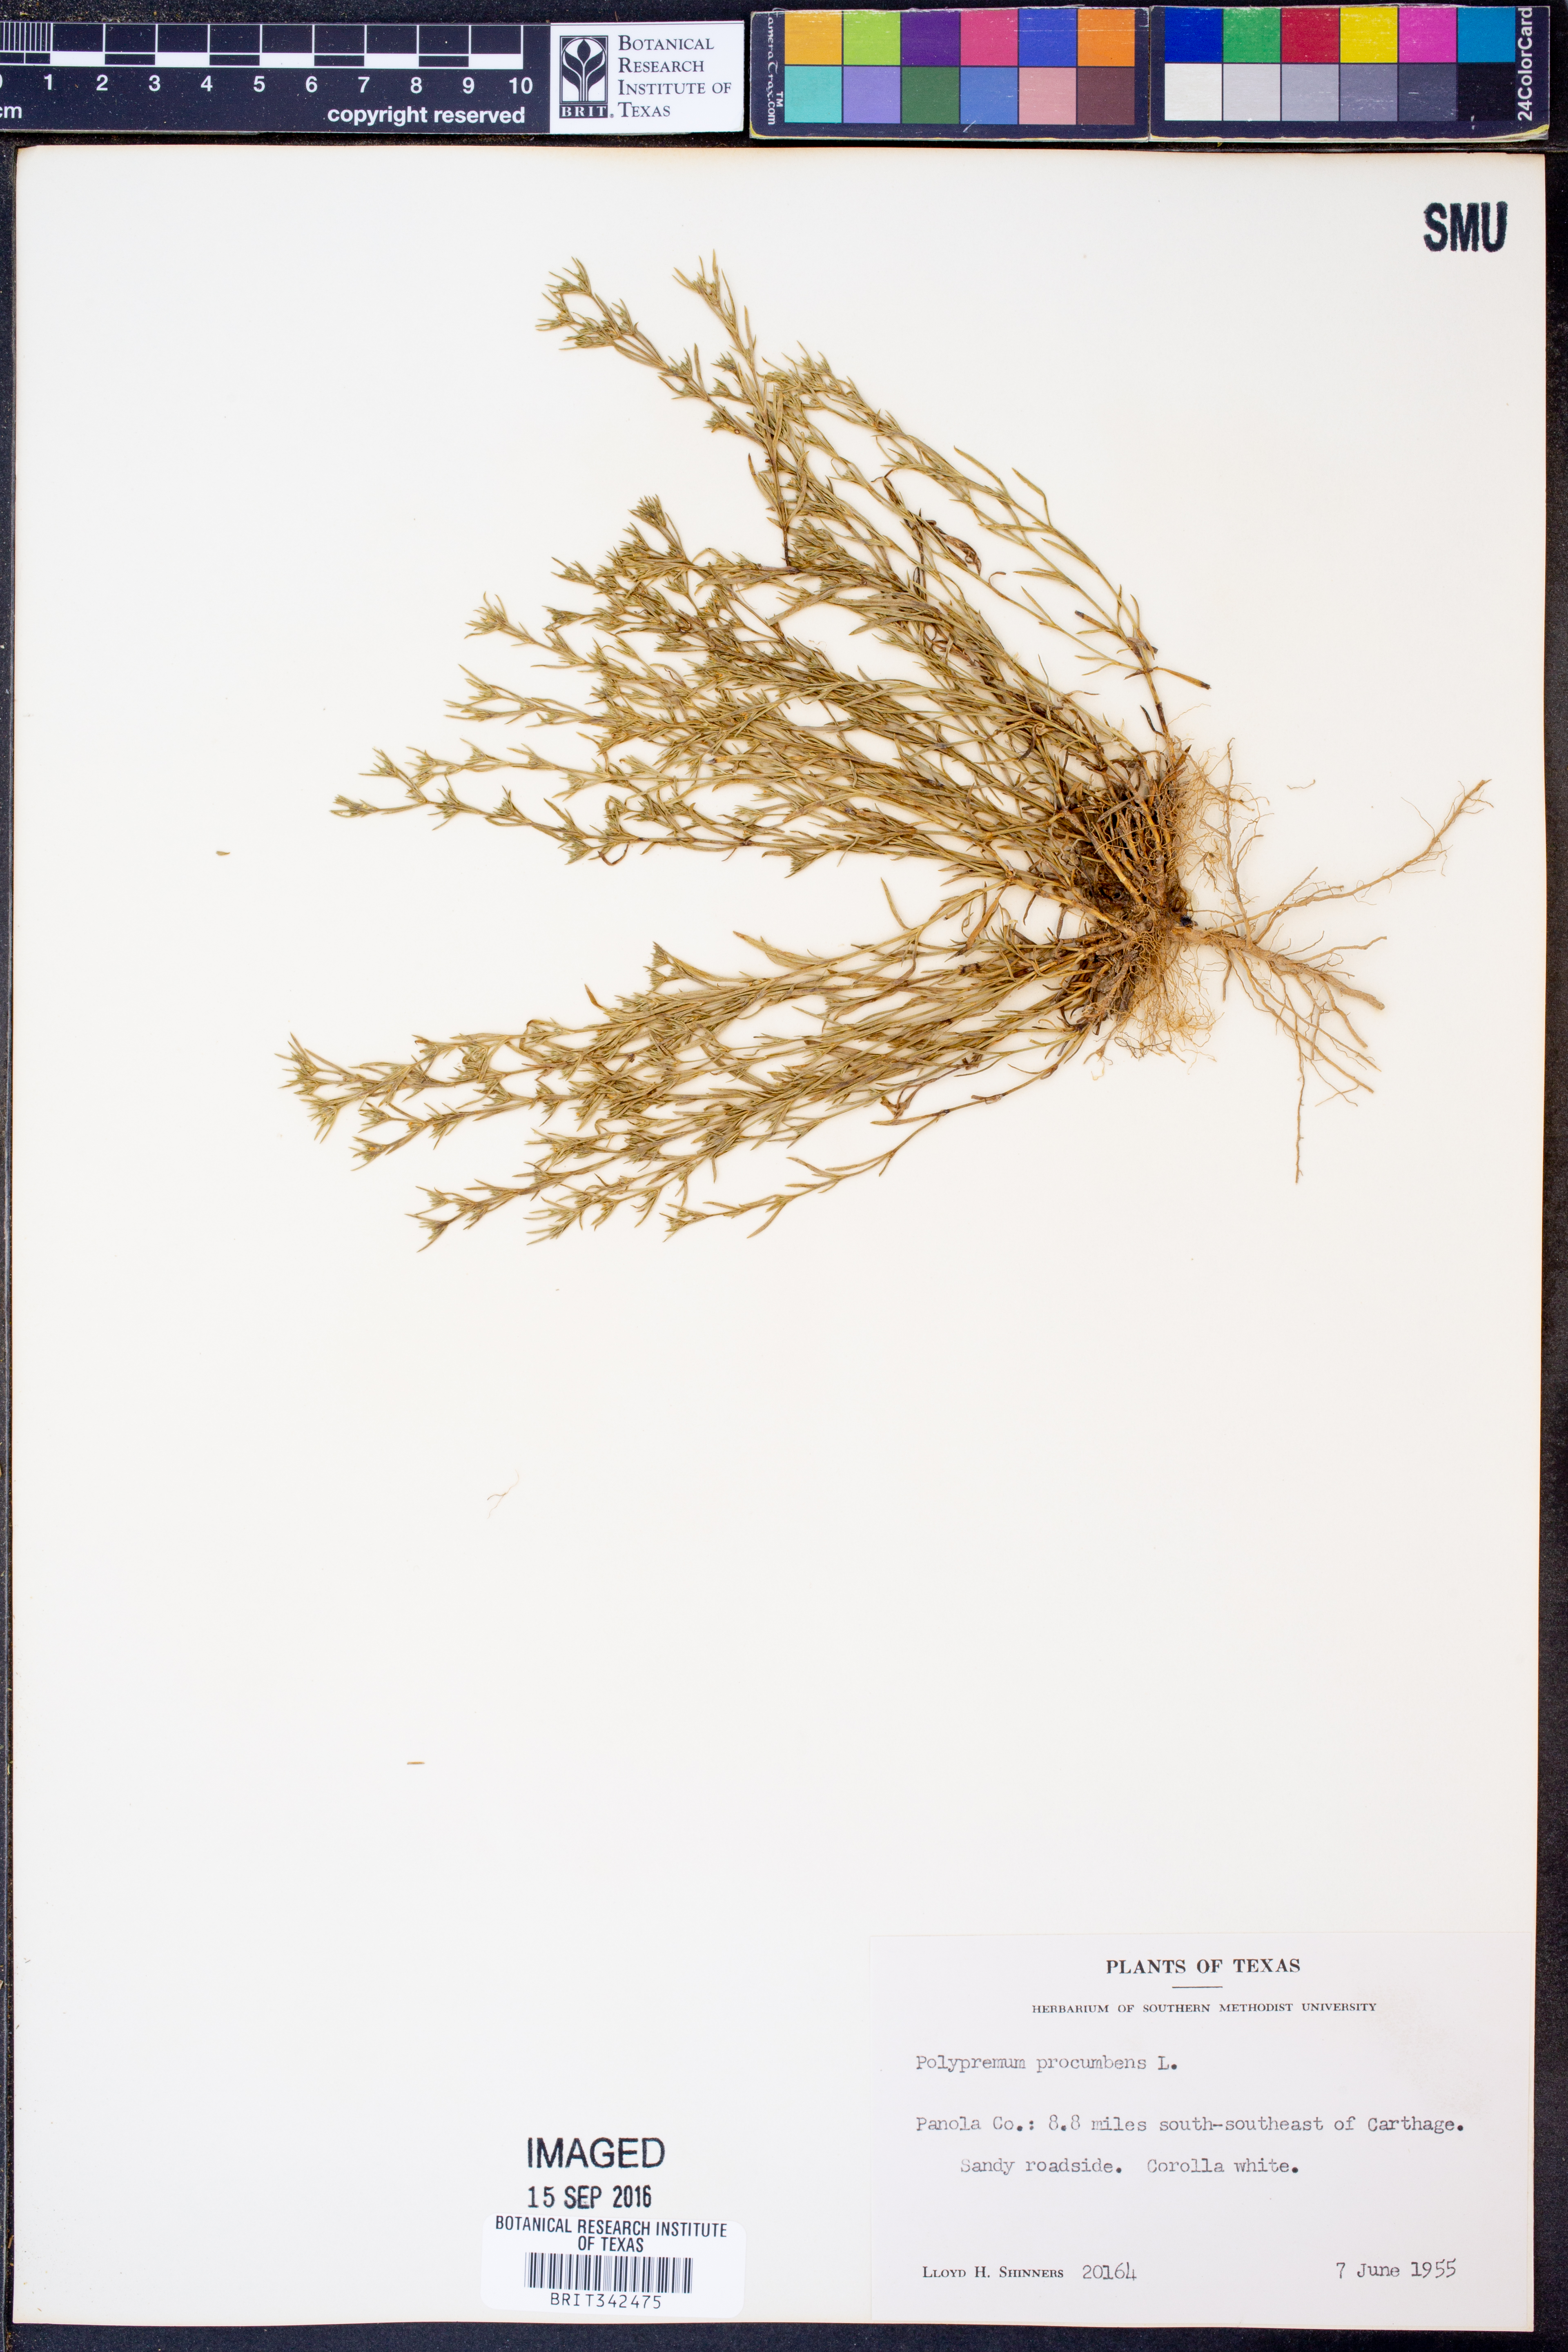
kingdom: Plantae
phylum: Tracheophyta
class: Magnoliopsida
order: Lamiales
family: Tetrachondraceae
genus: Polypremum
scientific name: Polypremum procumbens
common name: Juniper-leaf
